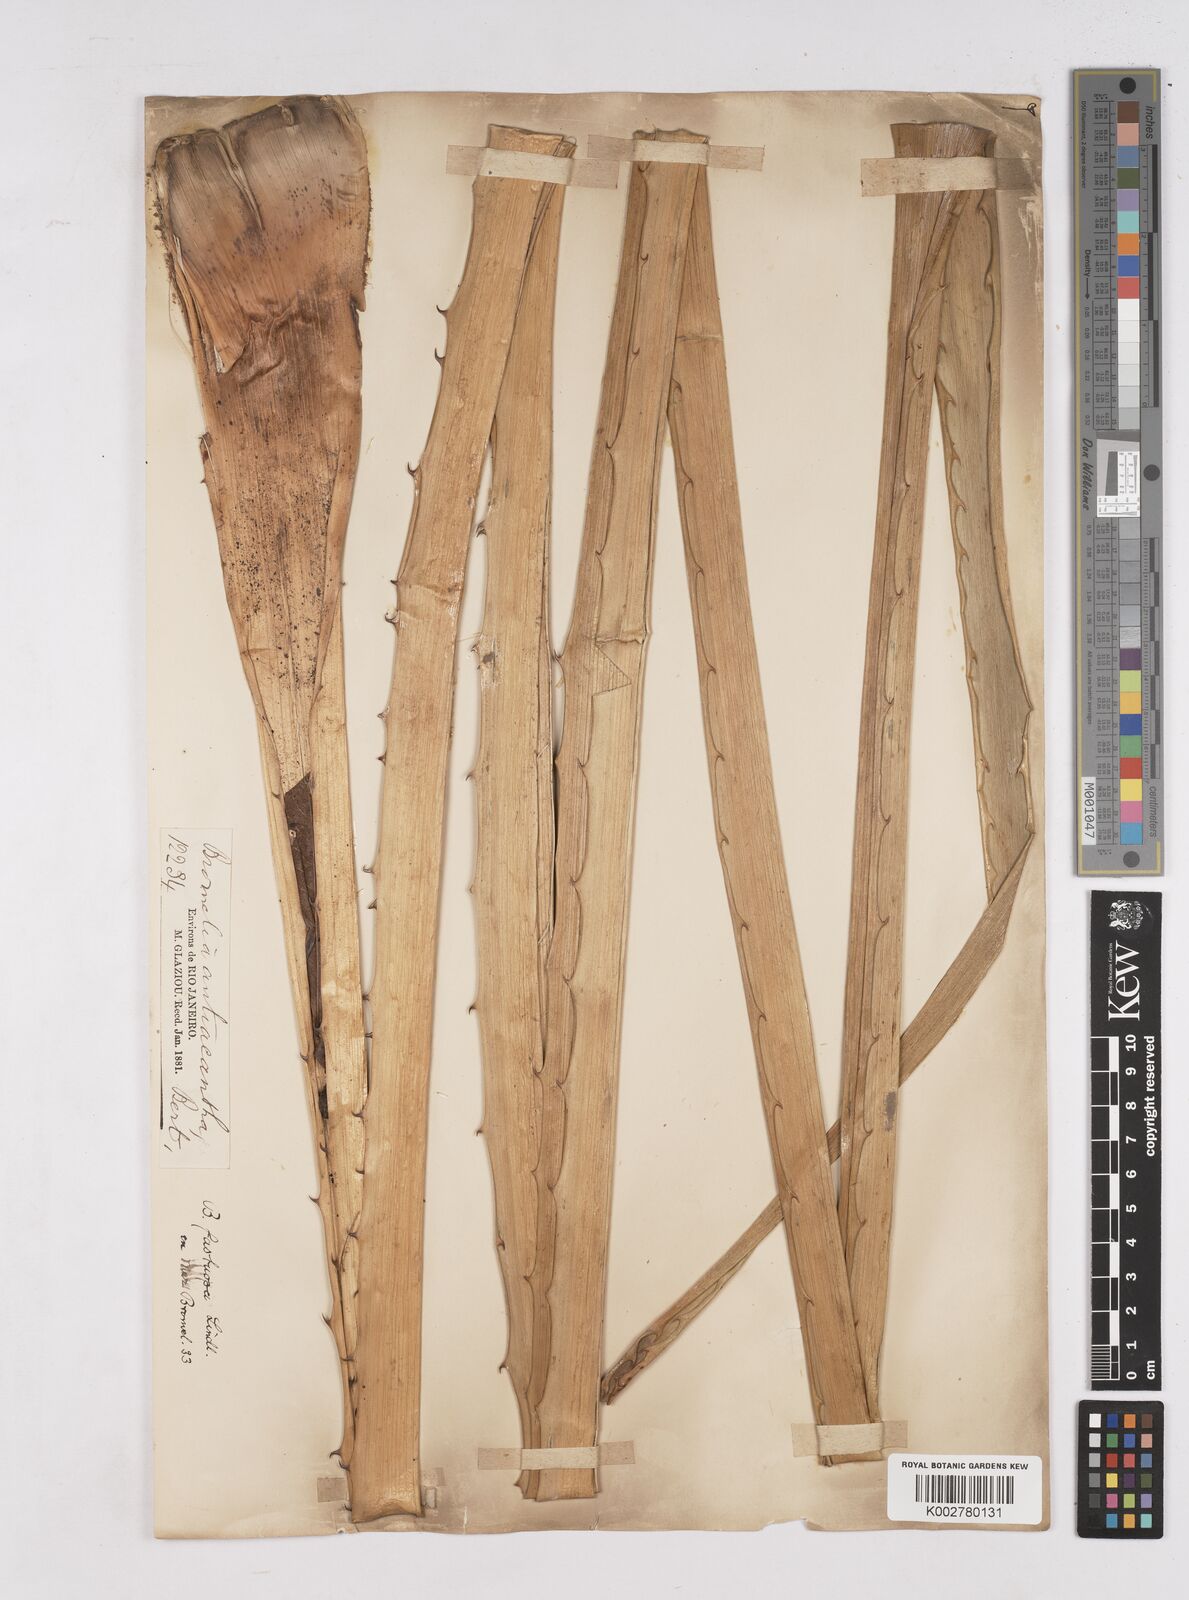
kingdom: Plantae
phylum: Tracheophyta
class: Liliopsida
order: Poales
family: Bromeliaceae
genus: Bromelia
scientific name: Bromelia antiacantha
